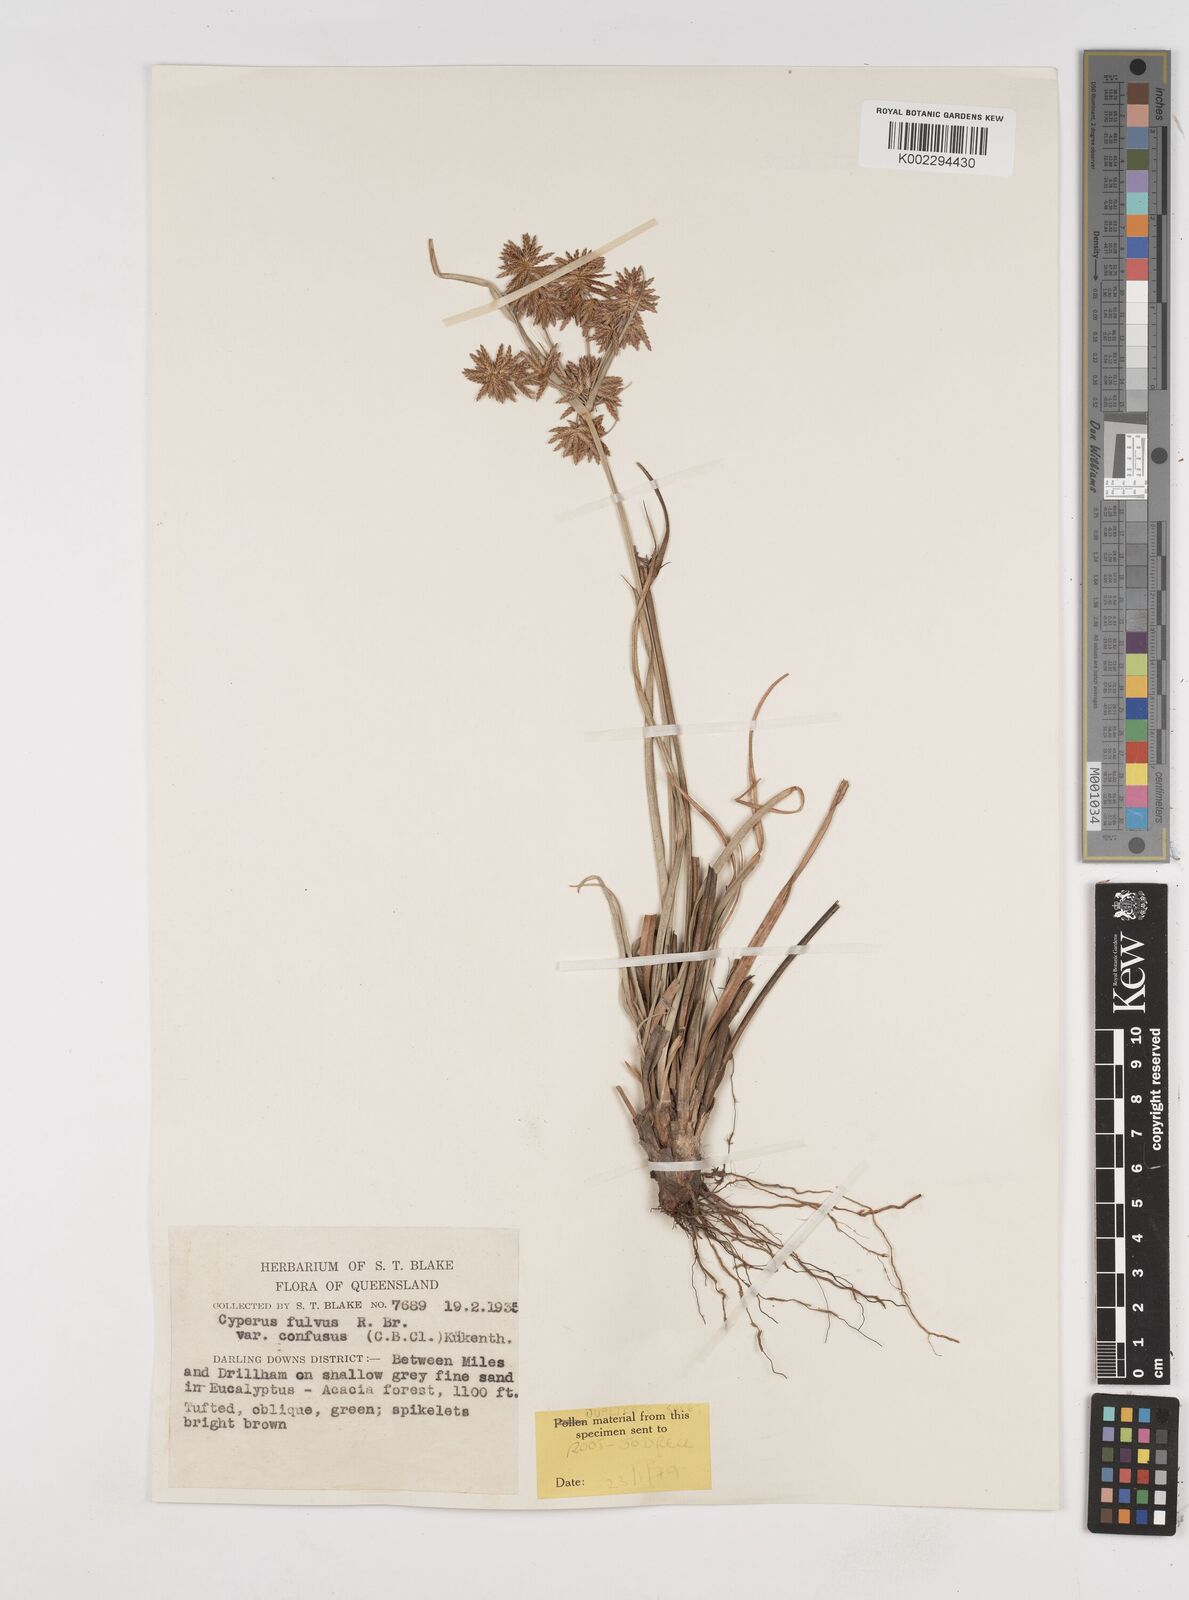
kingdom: Plantae
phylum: Tracheophyta
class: Liliopsida
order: Poales
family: Cyperaceae
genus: Cyperus
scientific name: Cyperus fulvus
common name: Sticky sedge
